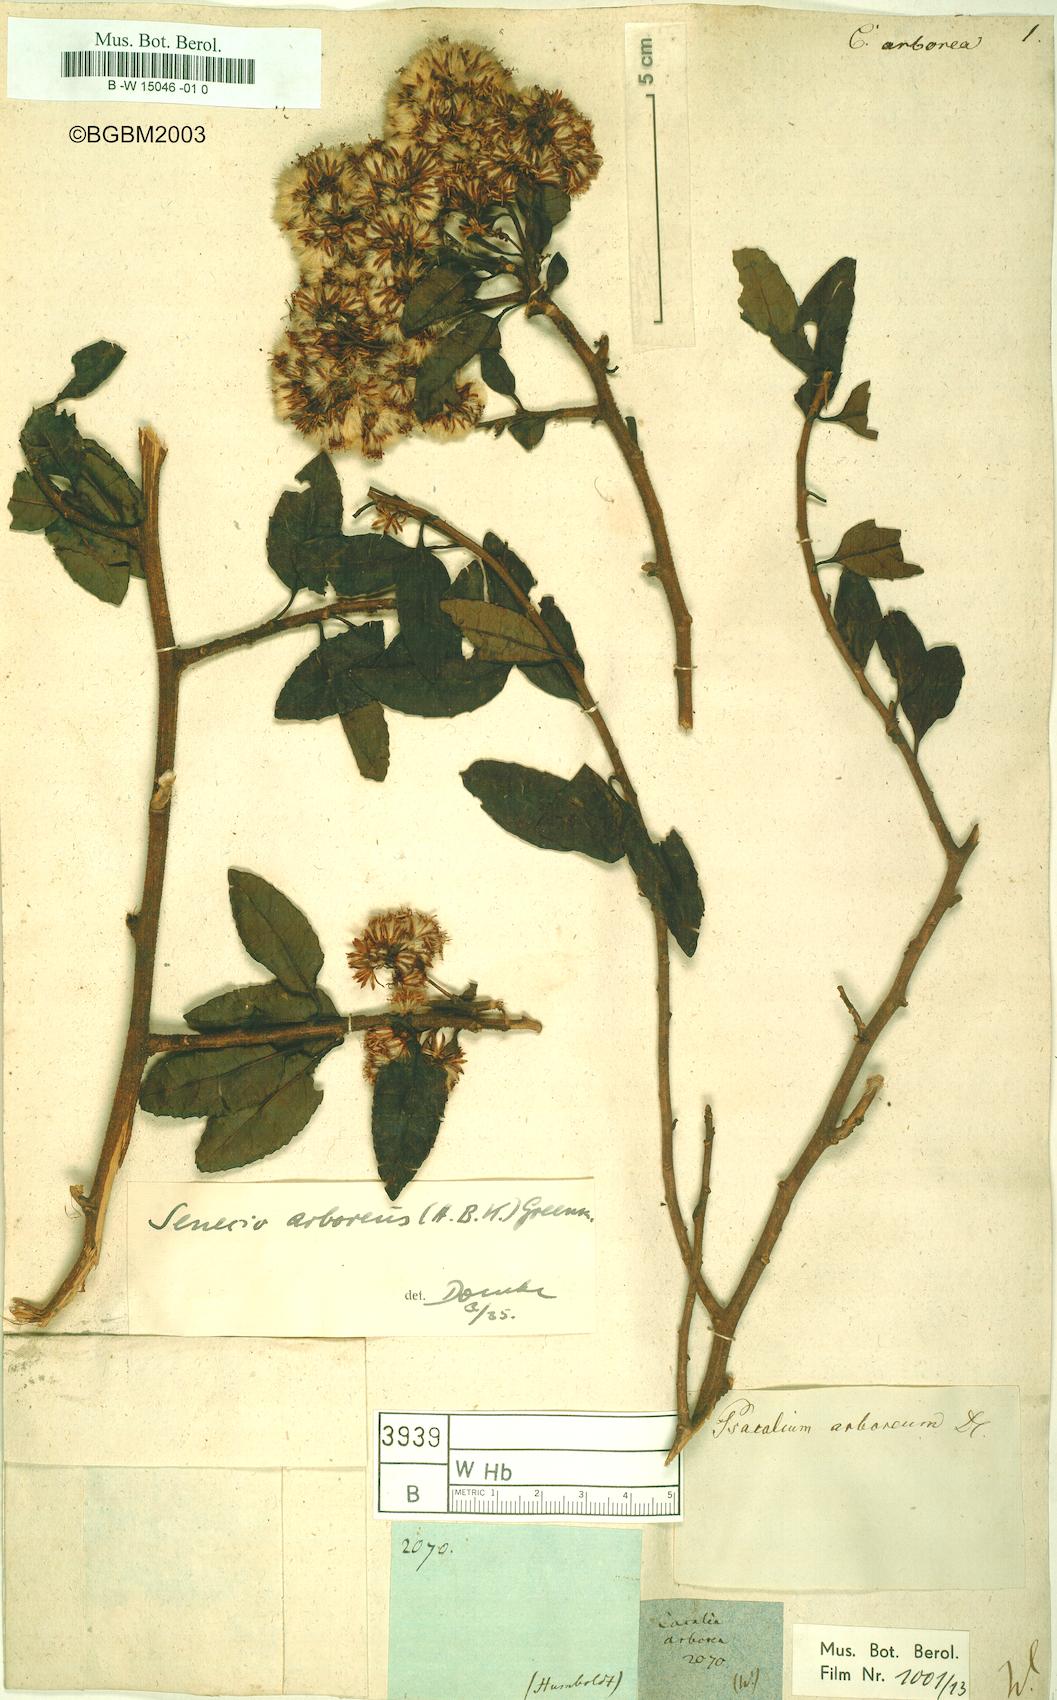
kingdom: Plantae
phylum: Tracheophyta
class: Magnoliopsida
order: Asterales
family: Asteraceae
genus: Pentacalia
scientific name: Pentacalia arborea
